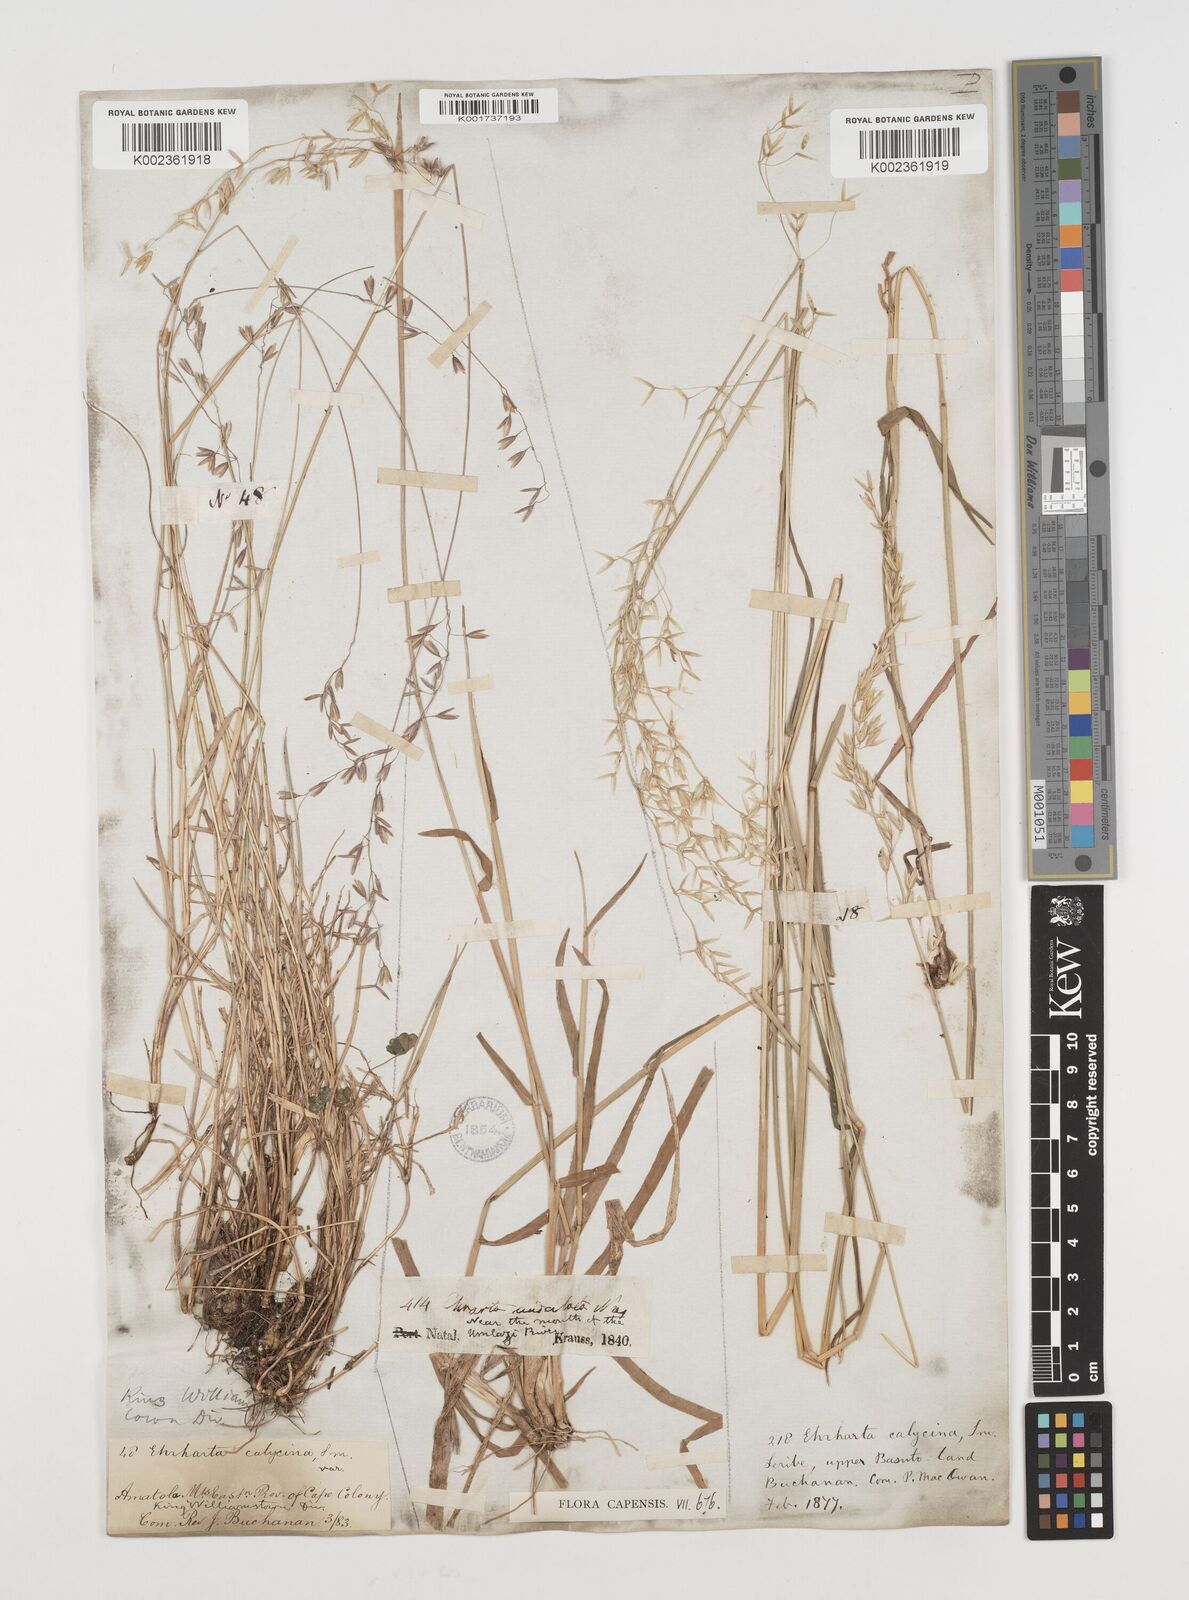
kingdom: Plantae
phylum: Tracheophyta
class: Liliopsida
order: Poales
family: Poaceae
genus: Ehrharta
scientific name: Ehrharta calycina
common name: Perennial veldtgrass
